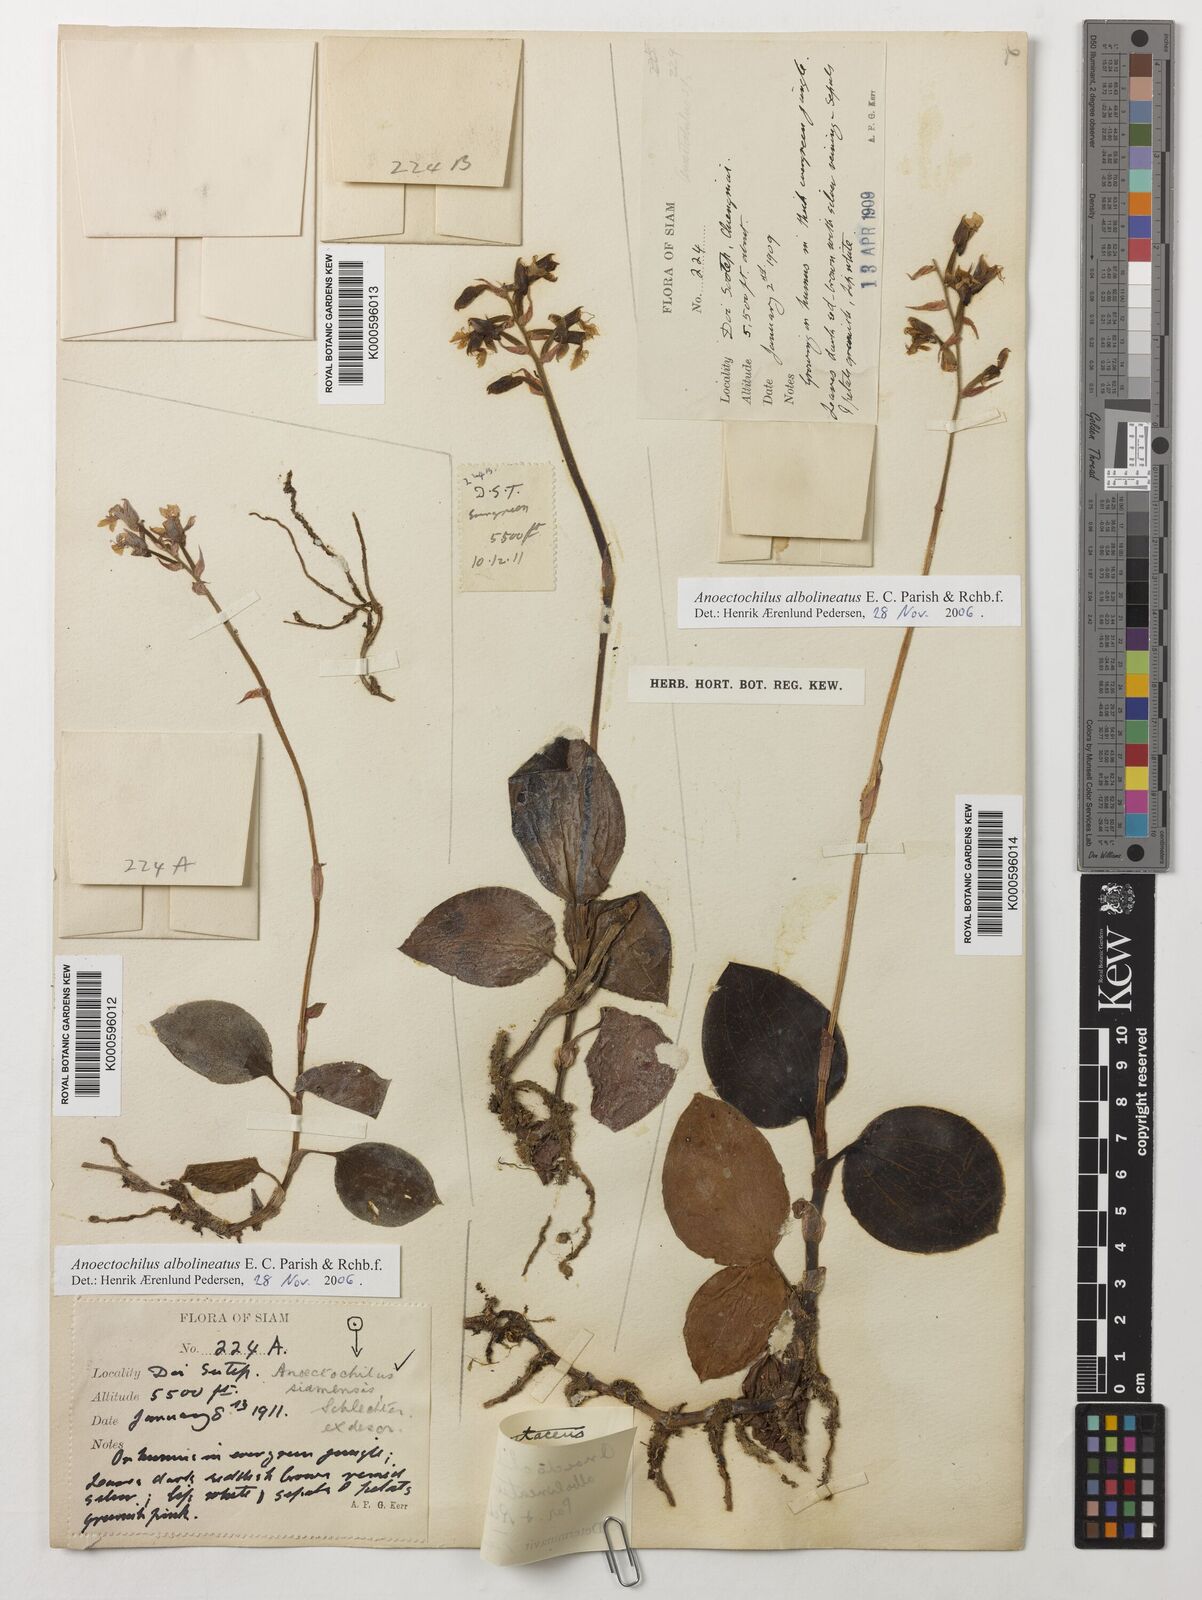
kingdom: Plantae
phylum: Tracheophyta
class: Liliopsida
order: Asparagales
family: Orchidaceae
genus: Anoectochilus
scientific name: Anoectochilus albolineatus
